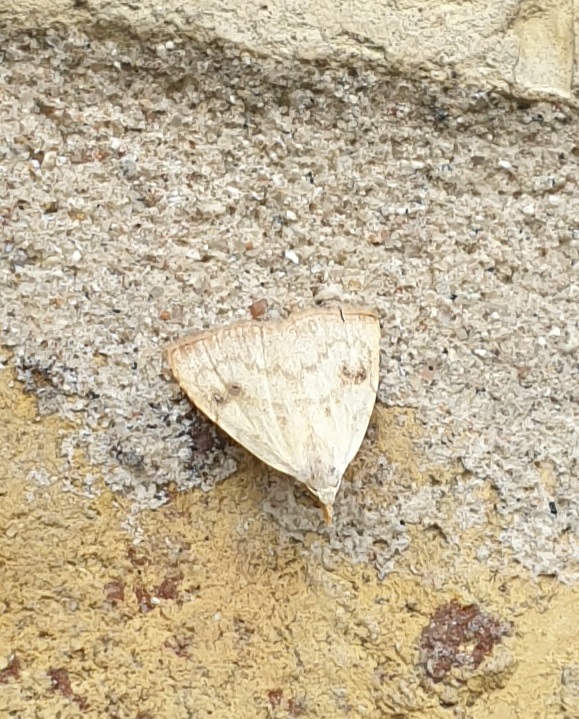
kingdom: Animalia
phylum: Arthropoda
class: Insecta
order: Lepidoptera
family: Erebidae
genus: Rivula
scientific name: Rivula sericealis
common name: Lille å-ugle
